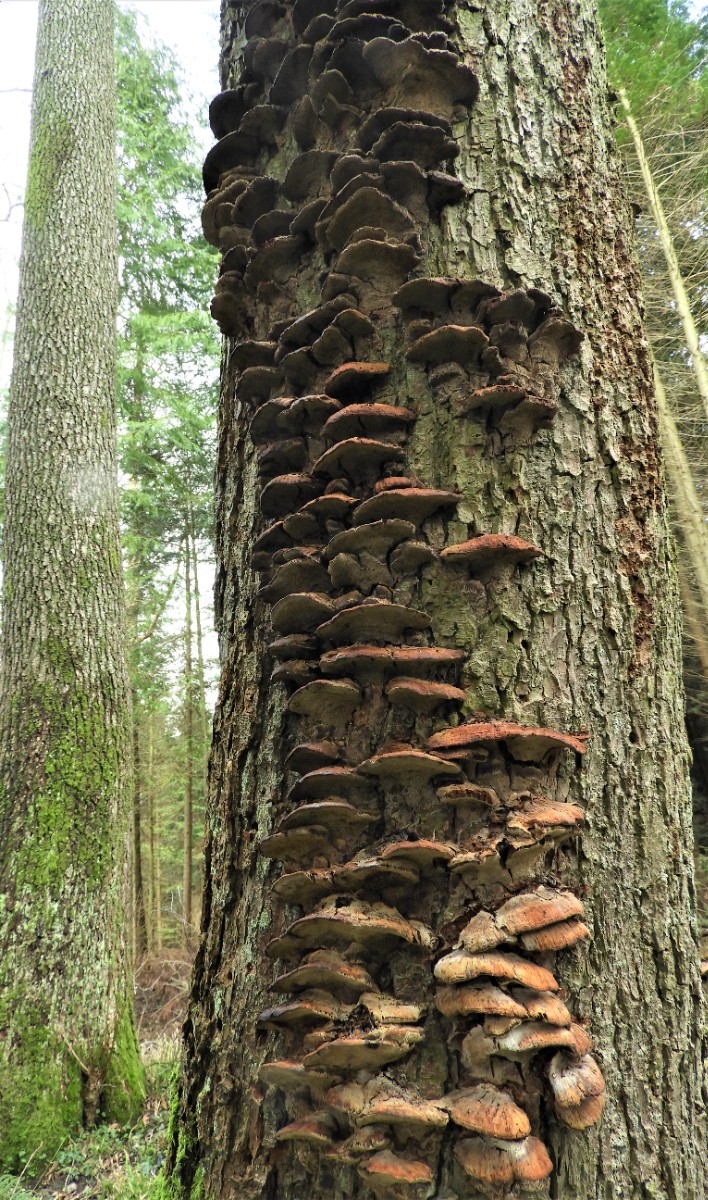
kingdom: Fungi
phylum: Basidiomycota
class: Agaricomycetes
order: Hymenochaetales
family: Hymenochaetaceae
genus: Xanthoporia
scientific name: Xanthoporia radiata
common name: elle-spejlporesvamp
